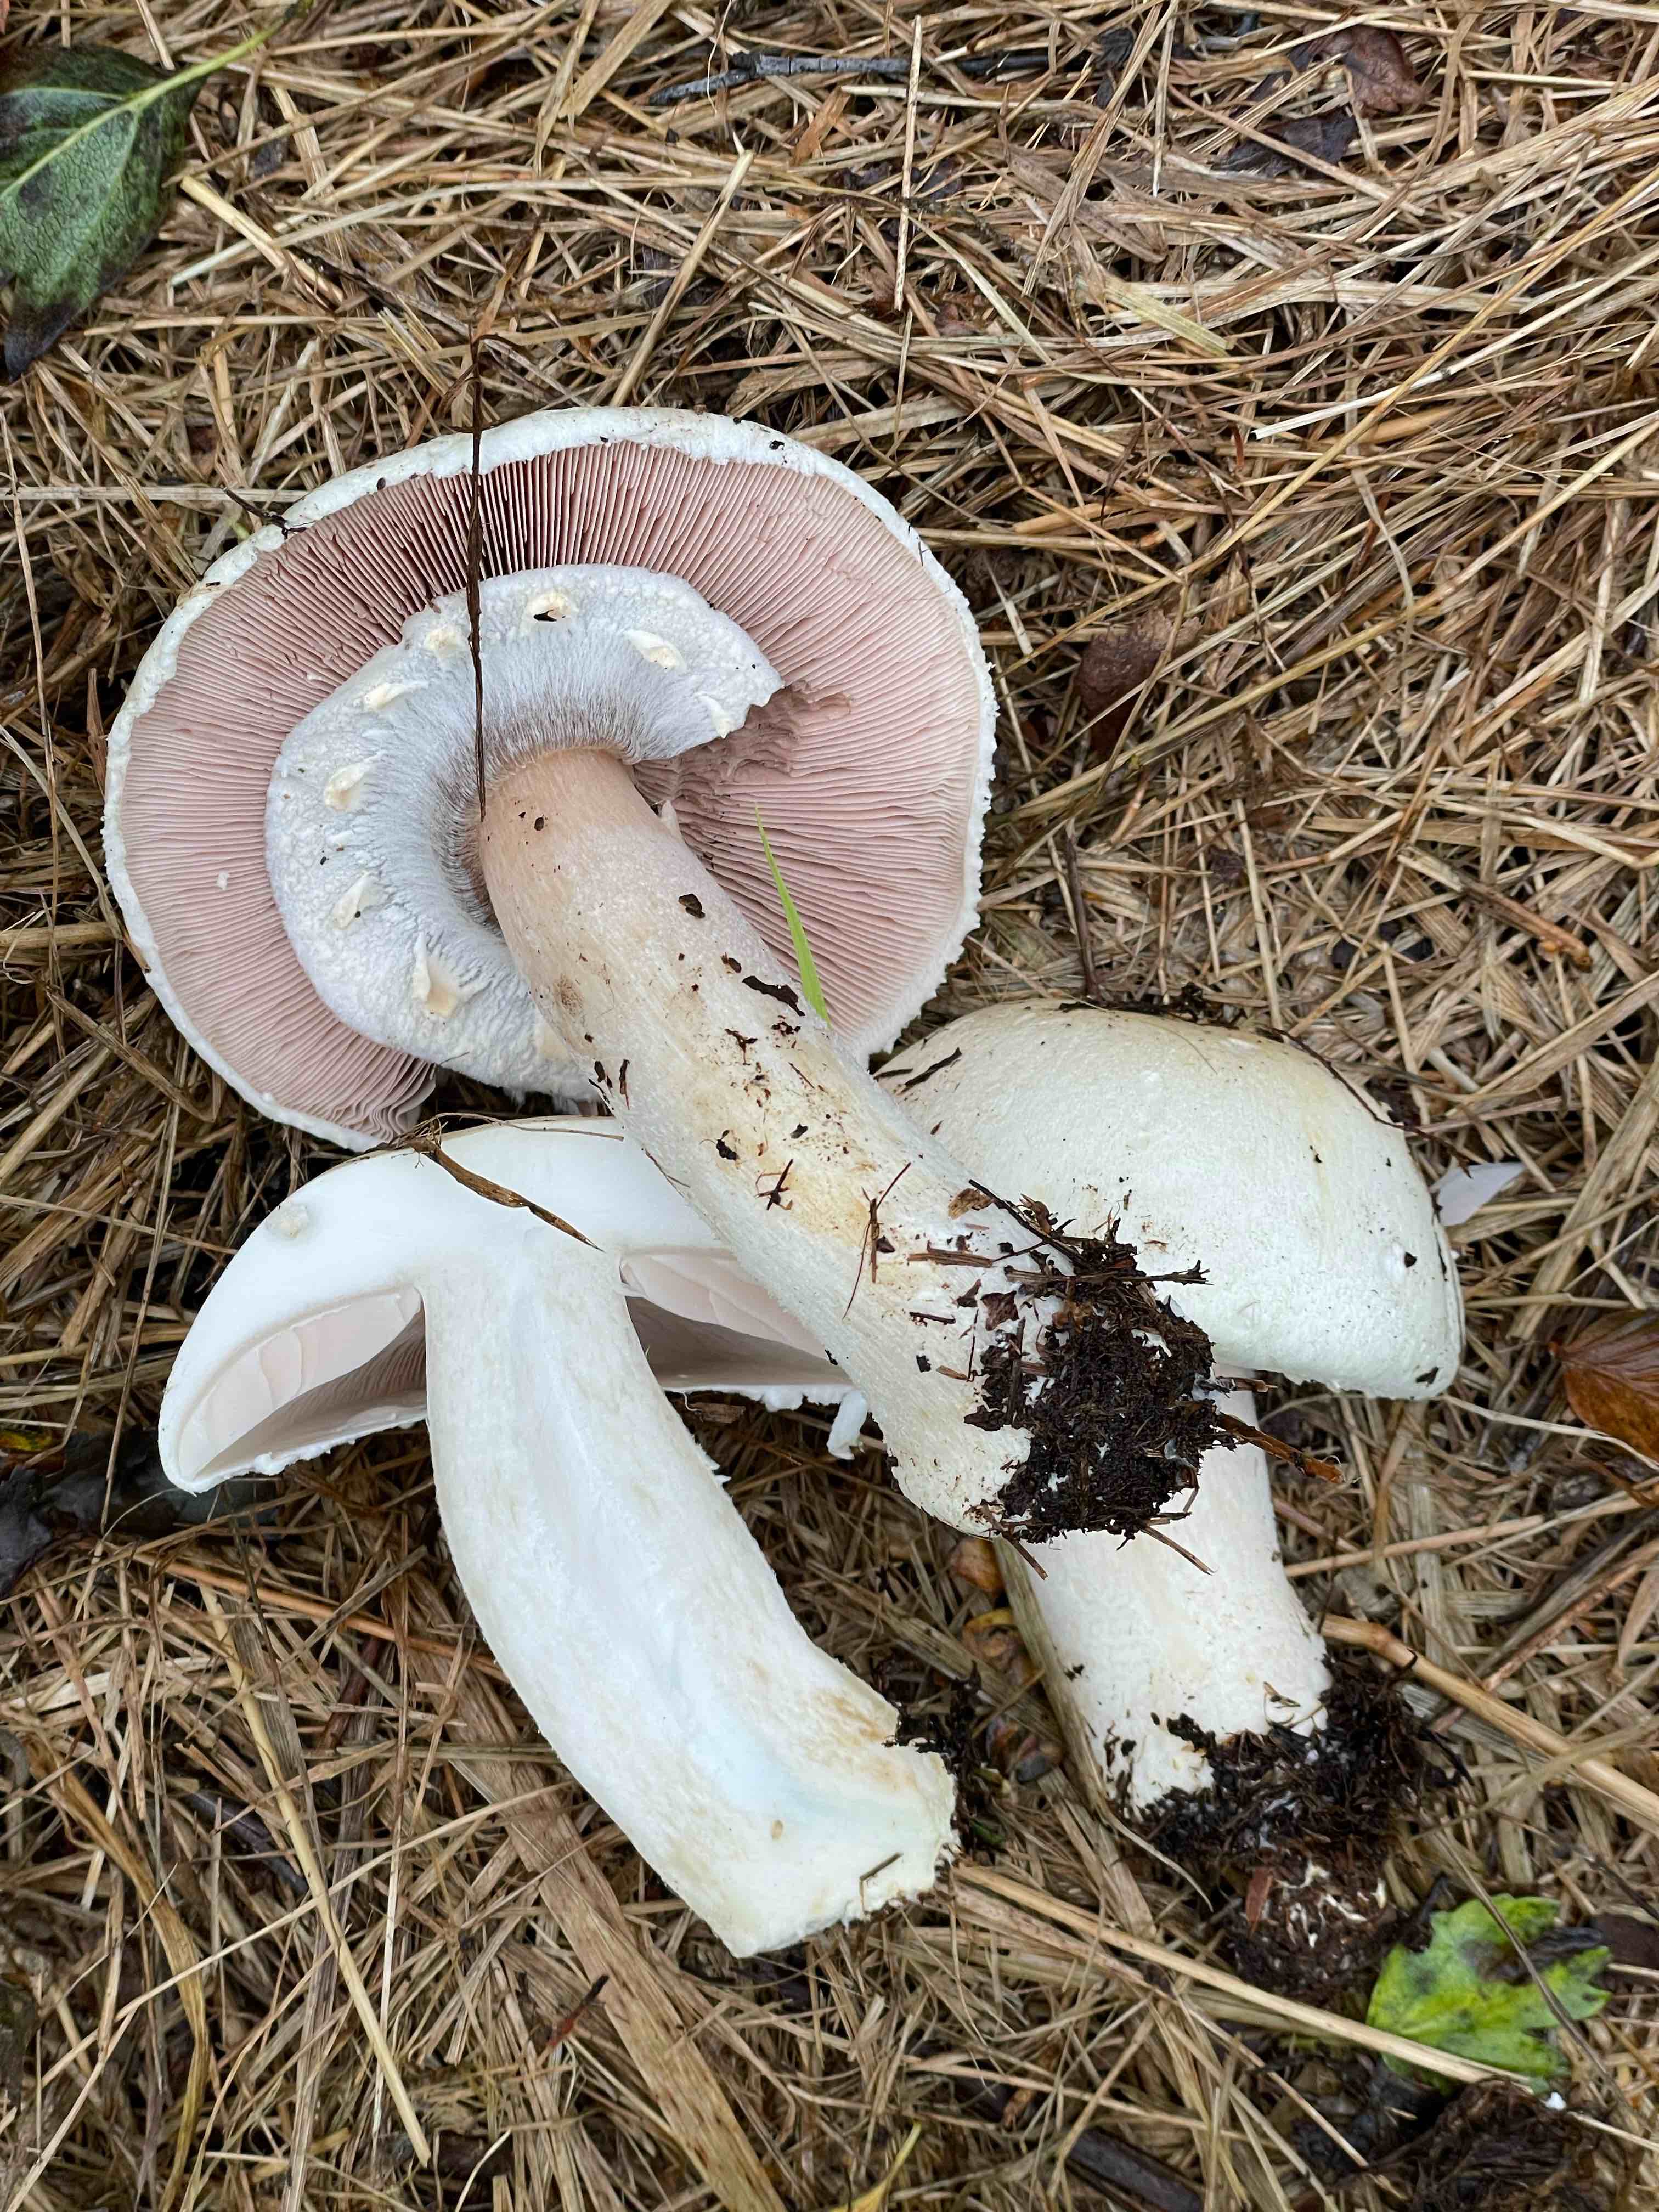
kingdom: Fungi
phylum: Basidiomycota
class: Agaricomycetes
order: Agaricales
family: Agaricaceae
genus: Agaricus
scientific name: Agaricus arvensis
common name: ager-champignon
